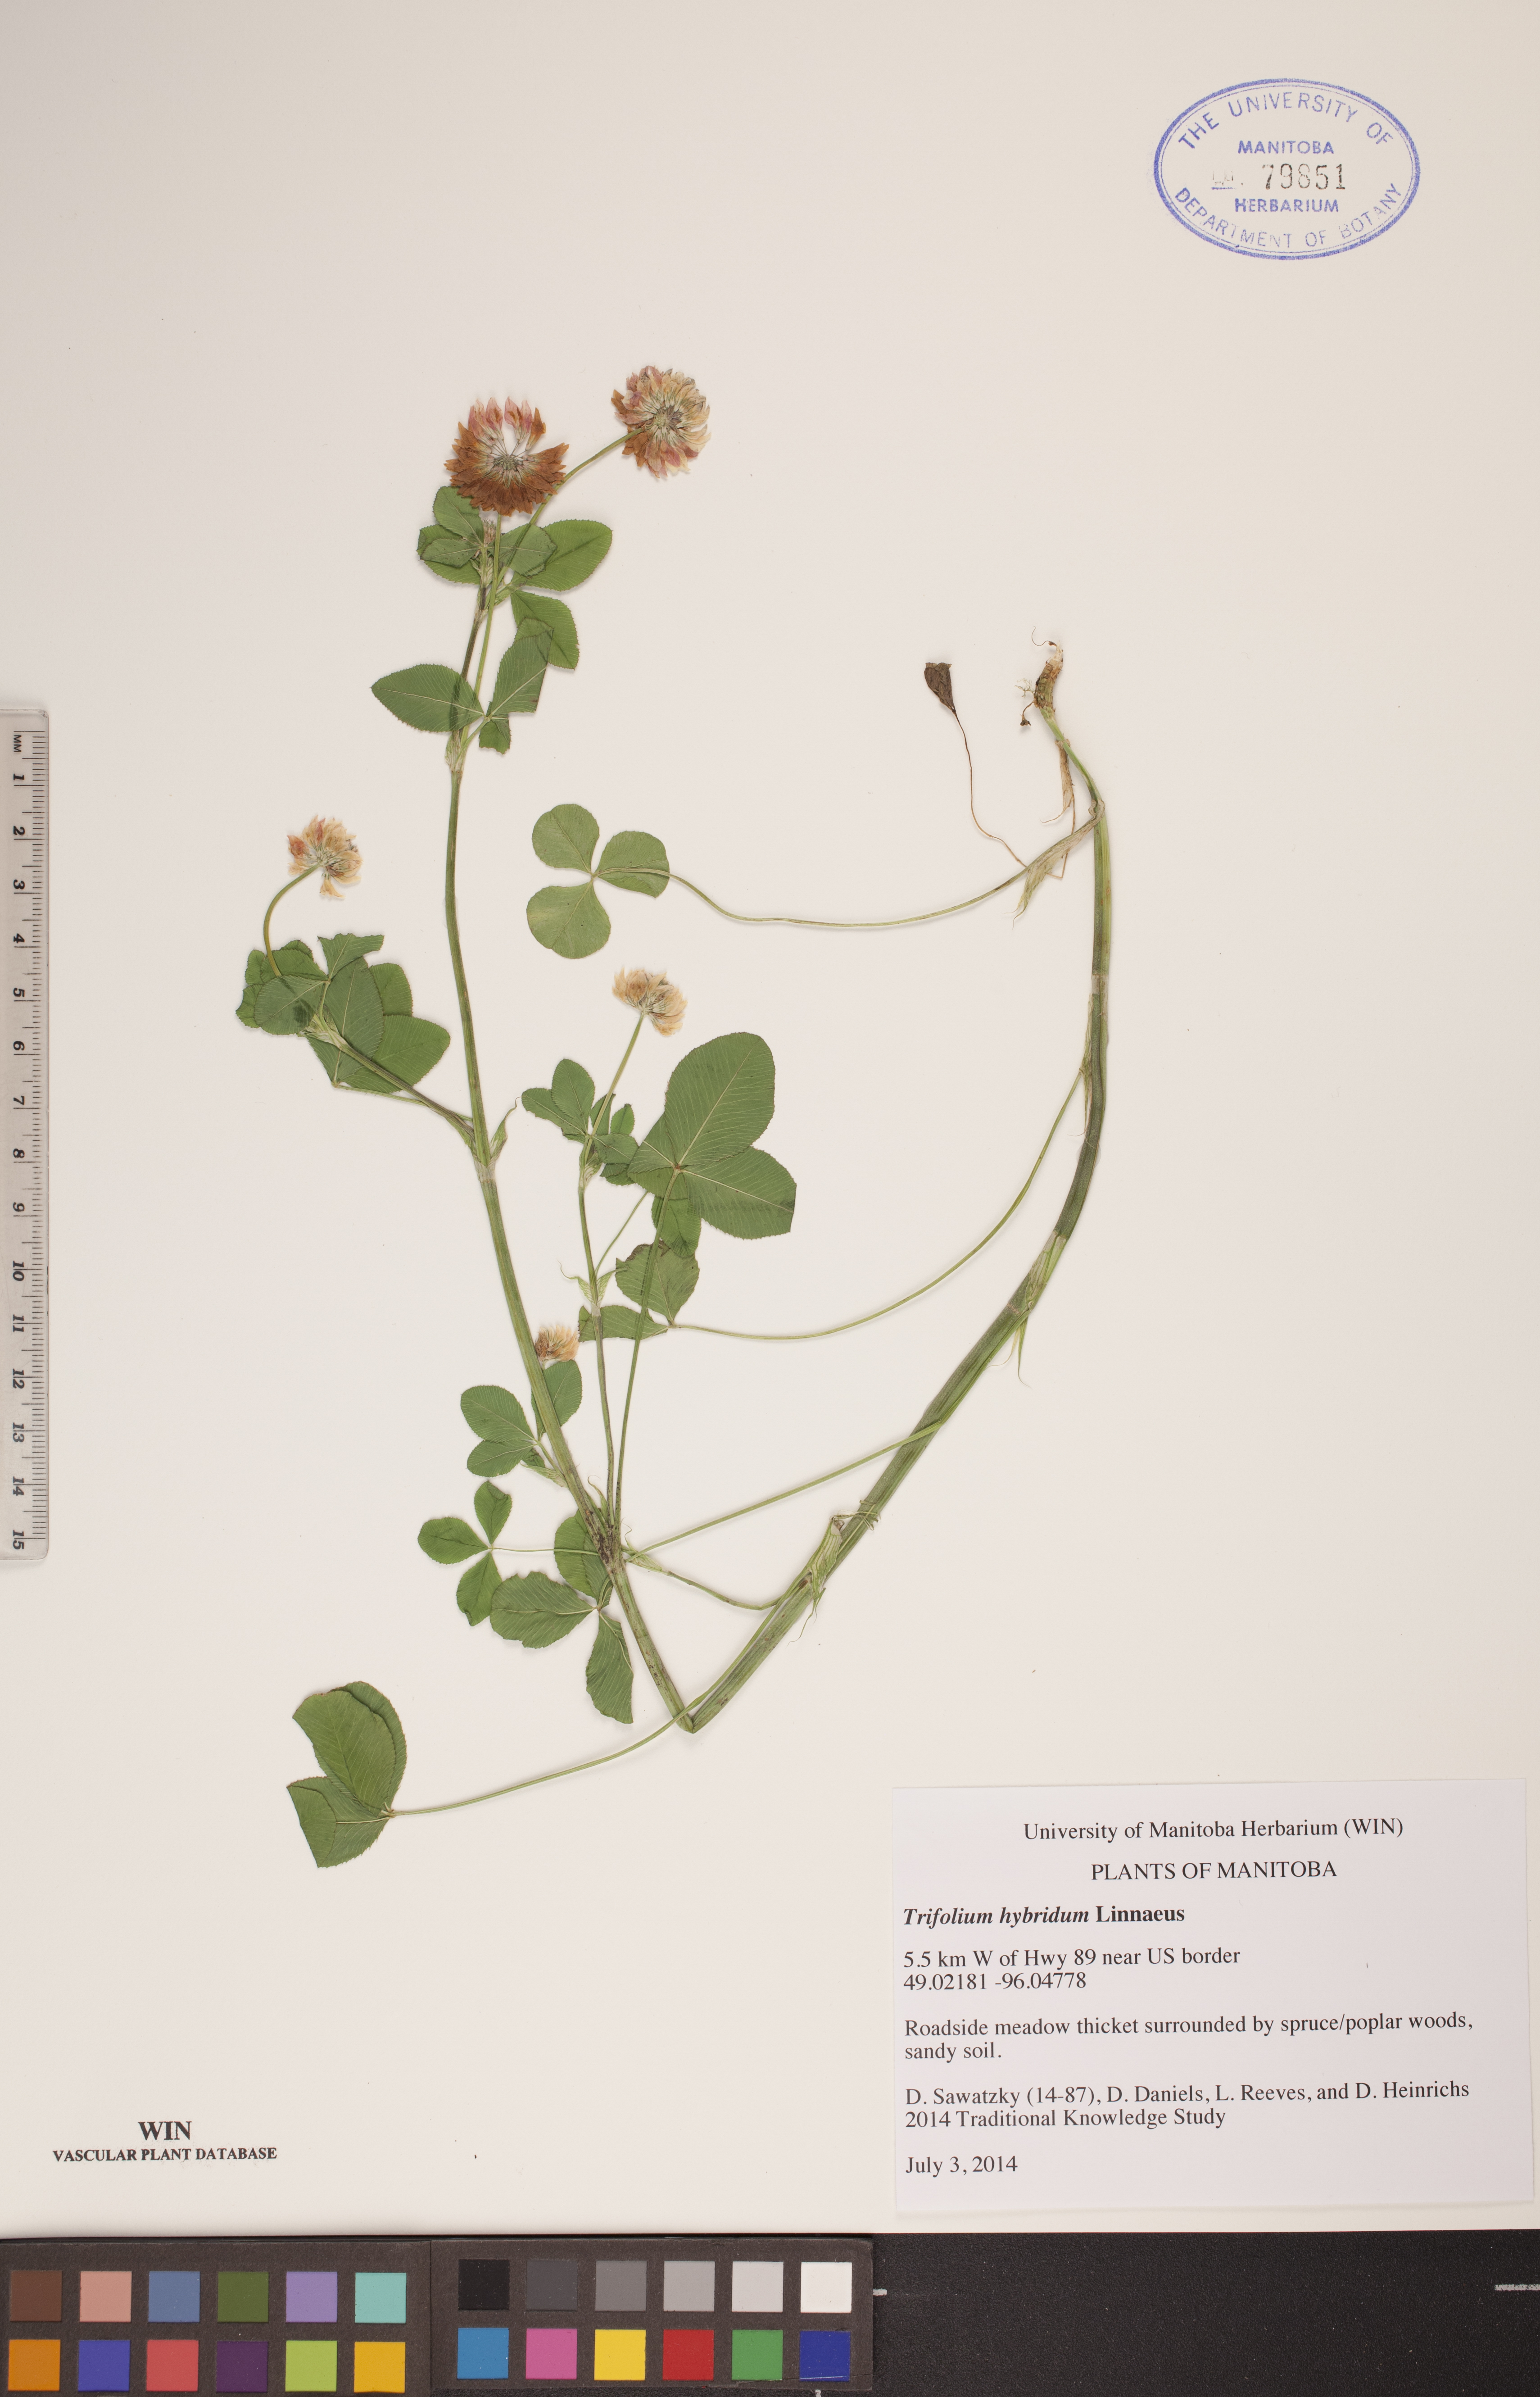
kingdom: Plantae
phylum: Tracheophyta
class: Magnoliopsida
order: Fabales
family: Fabaceae
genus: Trifolium
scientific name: Trifolium hybridum
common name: Alsike clover
